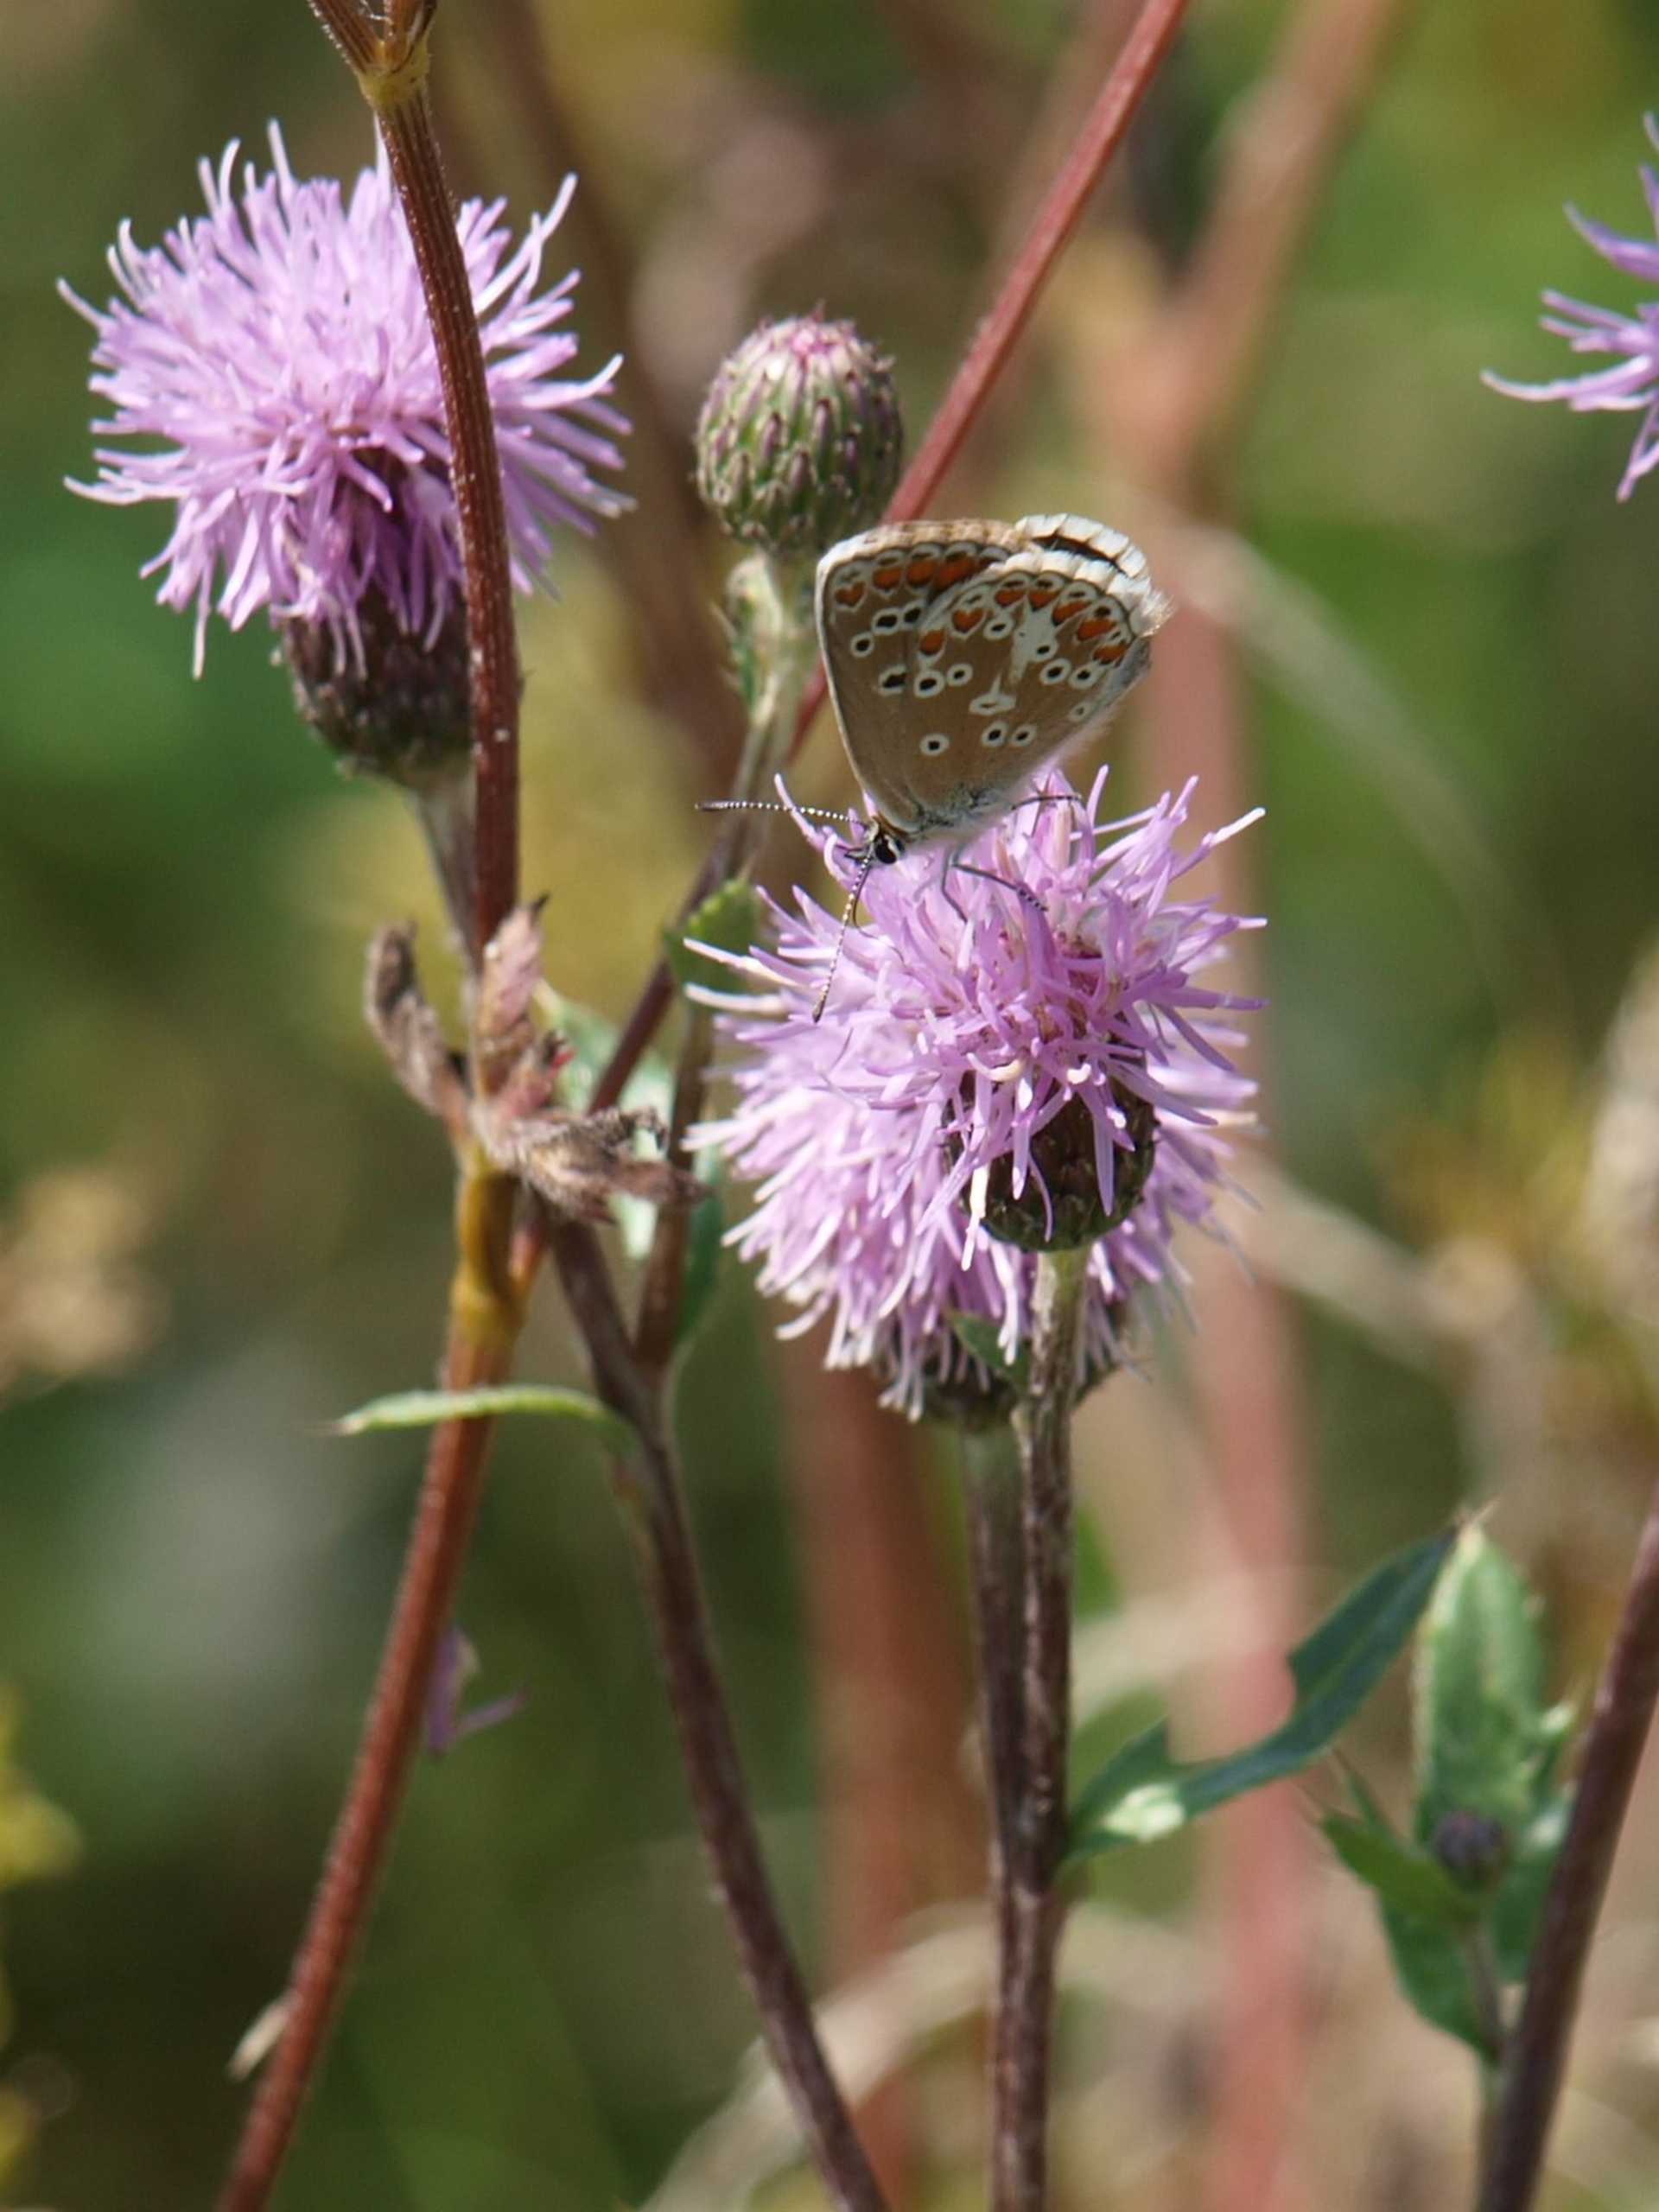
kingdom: Animalia
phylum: Arthropoda
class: Insecta
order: Lepidoptera
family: Lycaenidae
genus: Aricia
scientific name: Aricia agestis
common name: Rødplettet blåfugl
